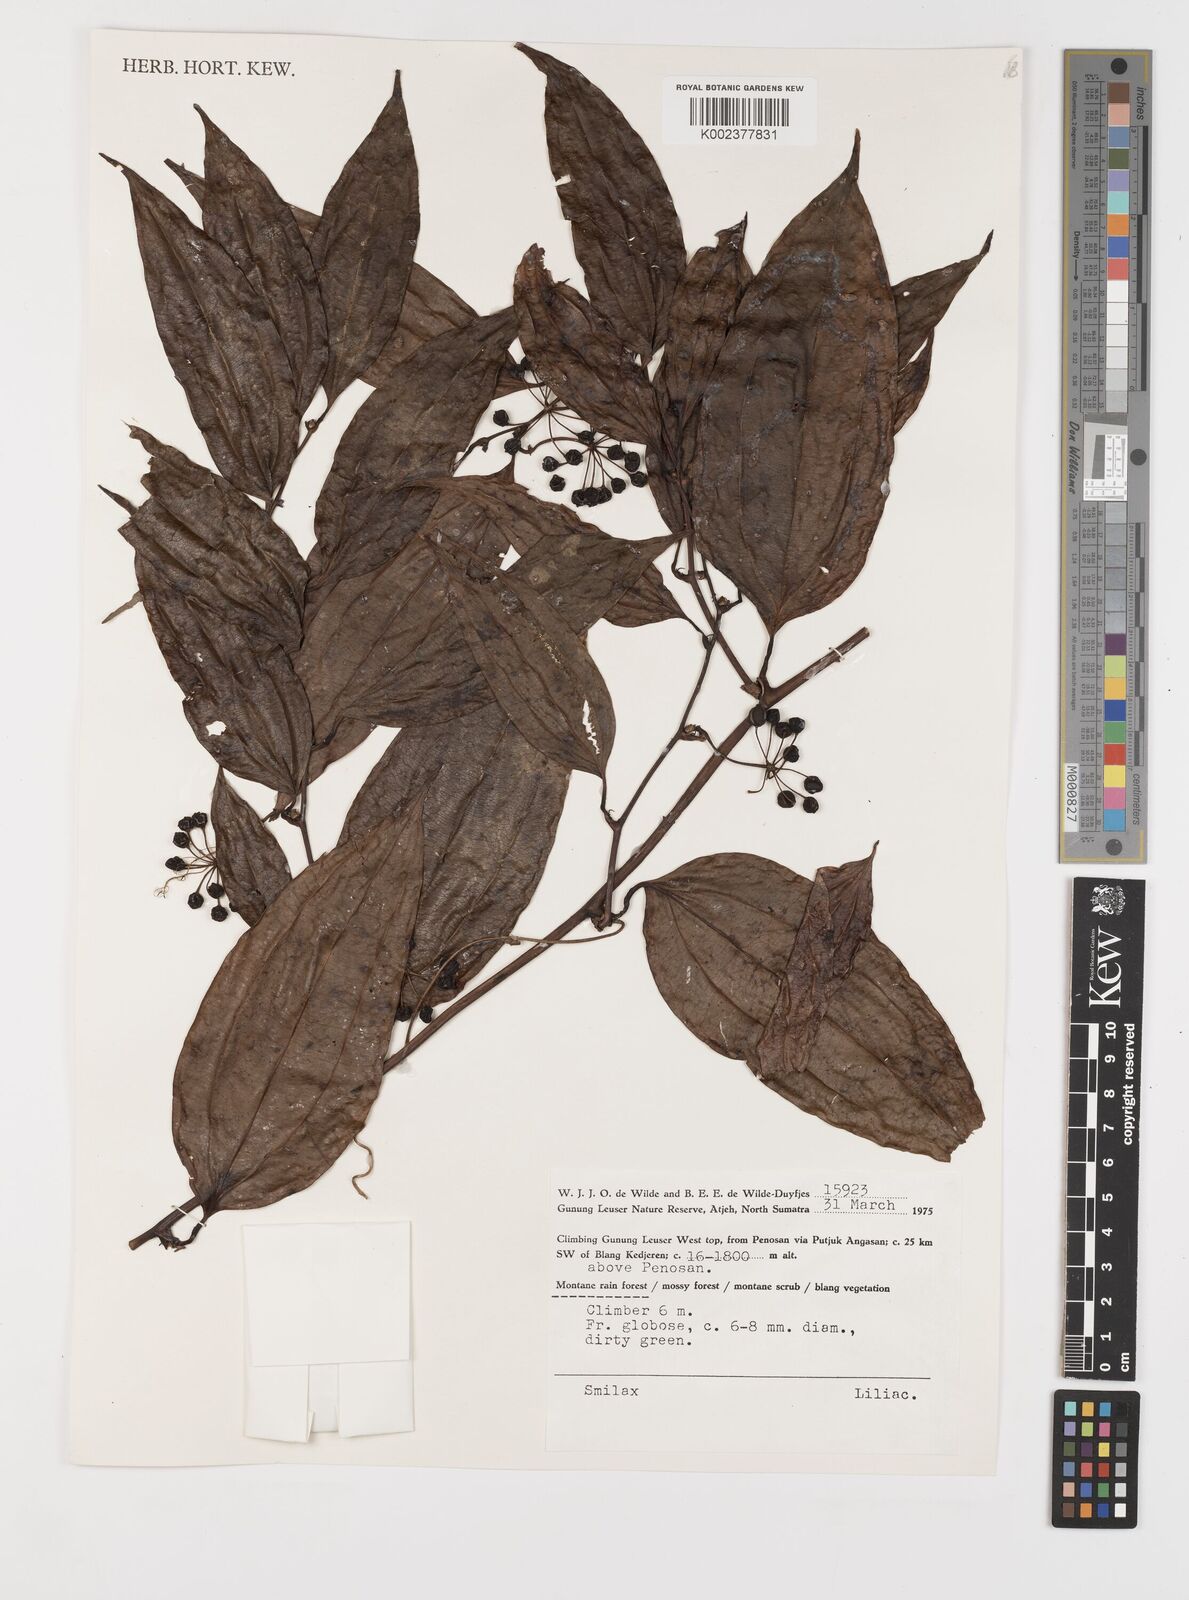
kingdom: Plantae
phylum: Tracheophyta
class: Liliopsida
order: Liliales
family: Smilacaceae
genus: Smilax
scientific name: Smilax
